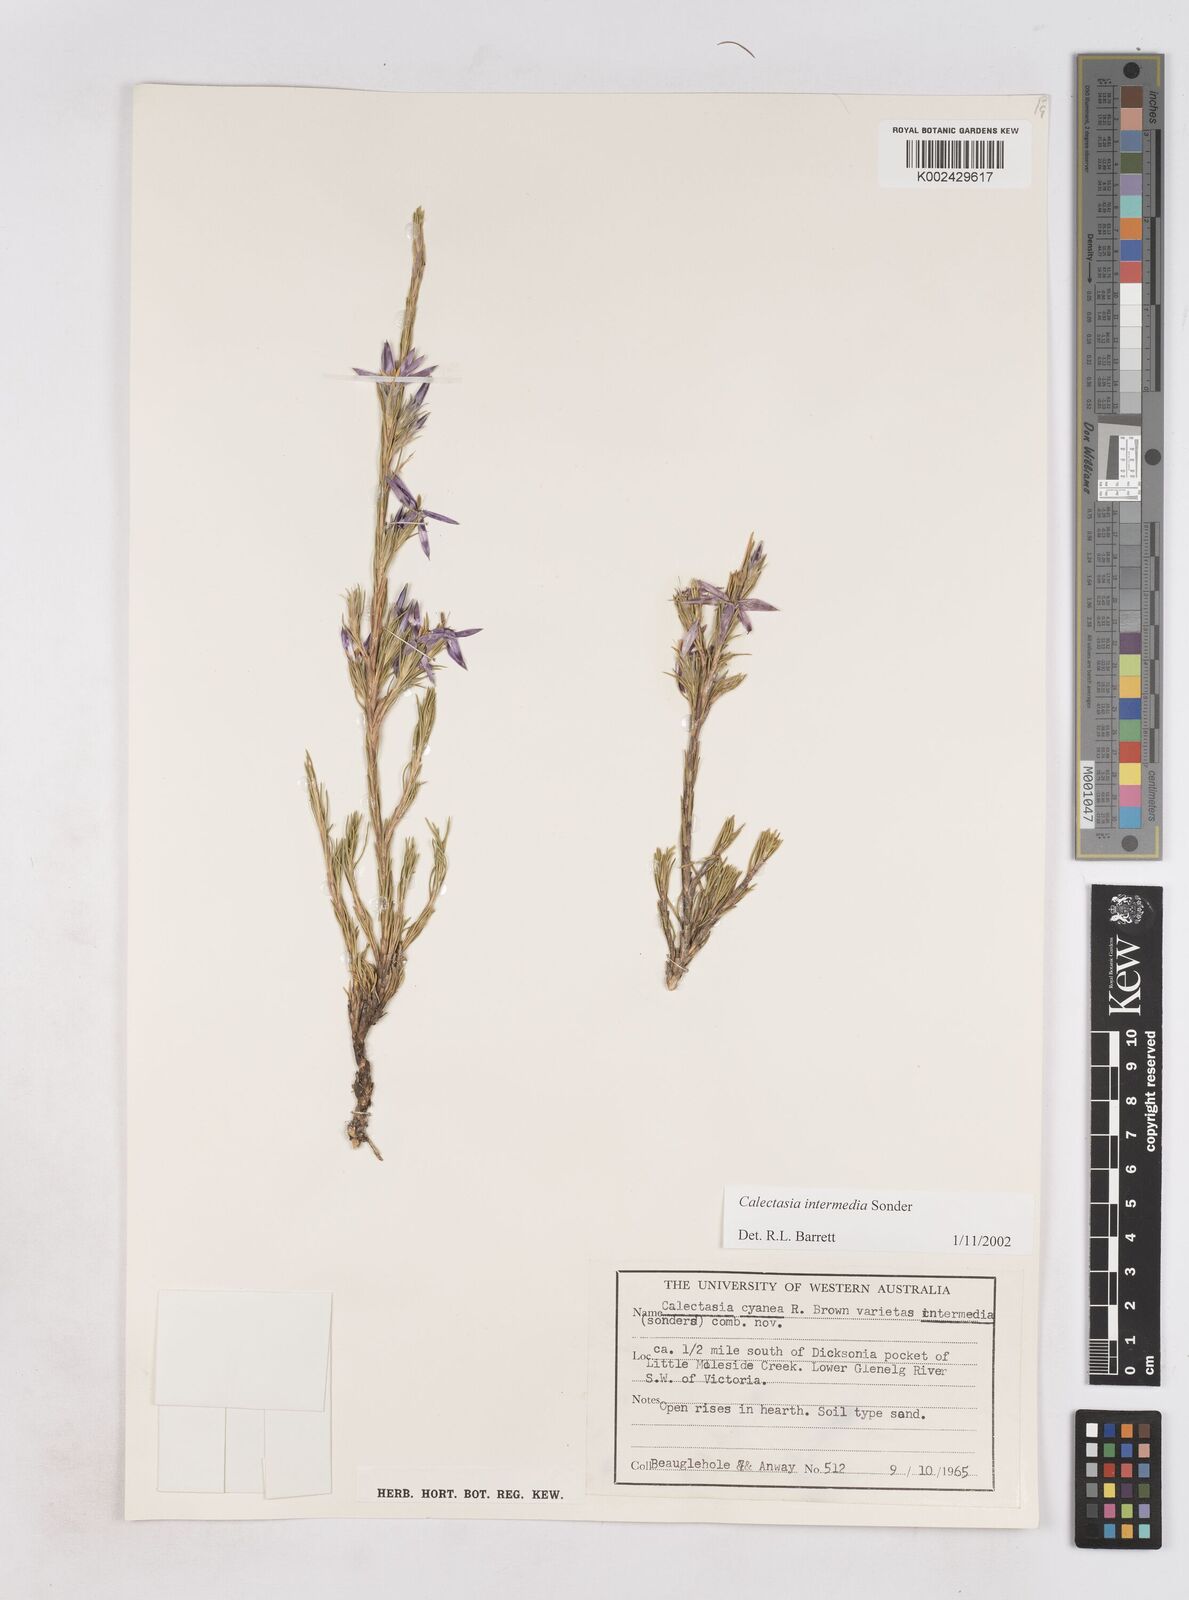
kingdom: Plantae
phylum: Tracheophyta
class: Liliopsida
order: Arecales
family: Dasypogonaceae
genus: Calectasia
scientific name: Calectasia intermedia
